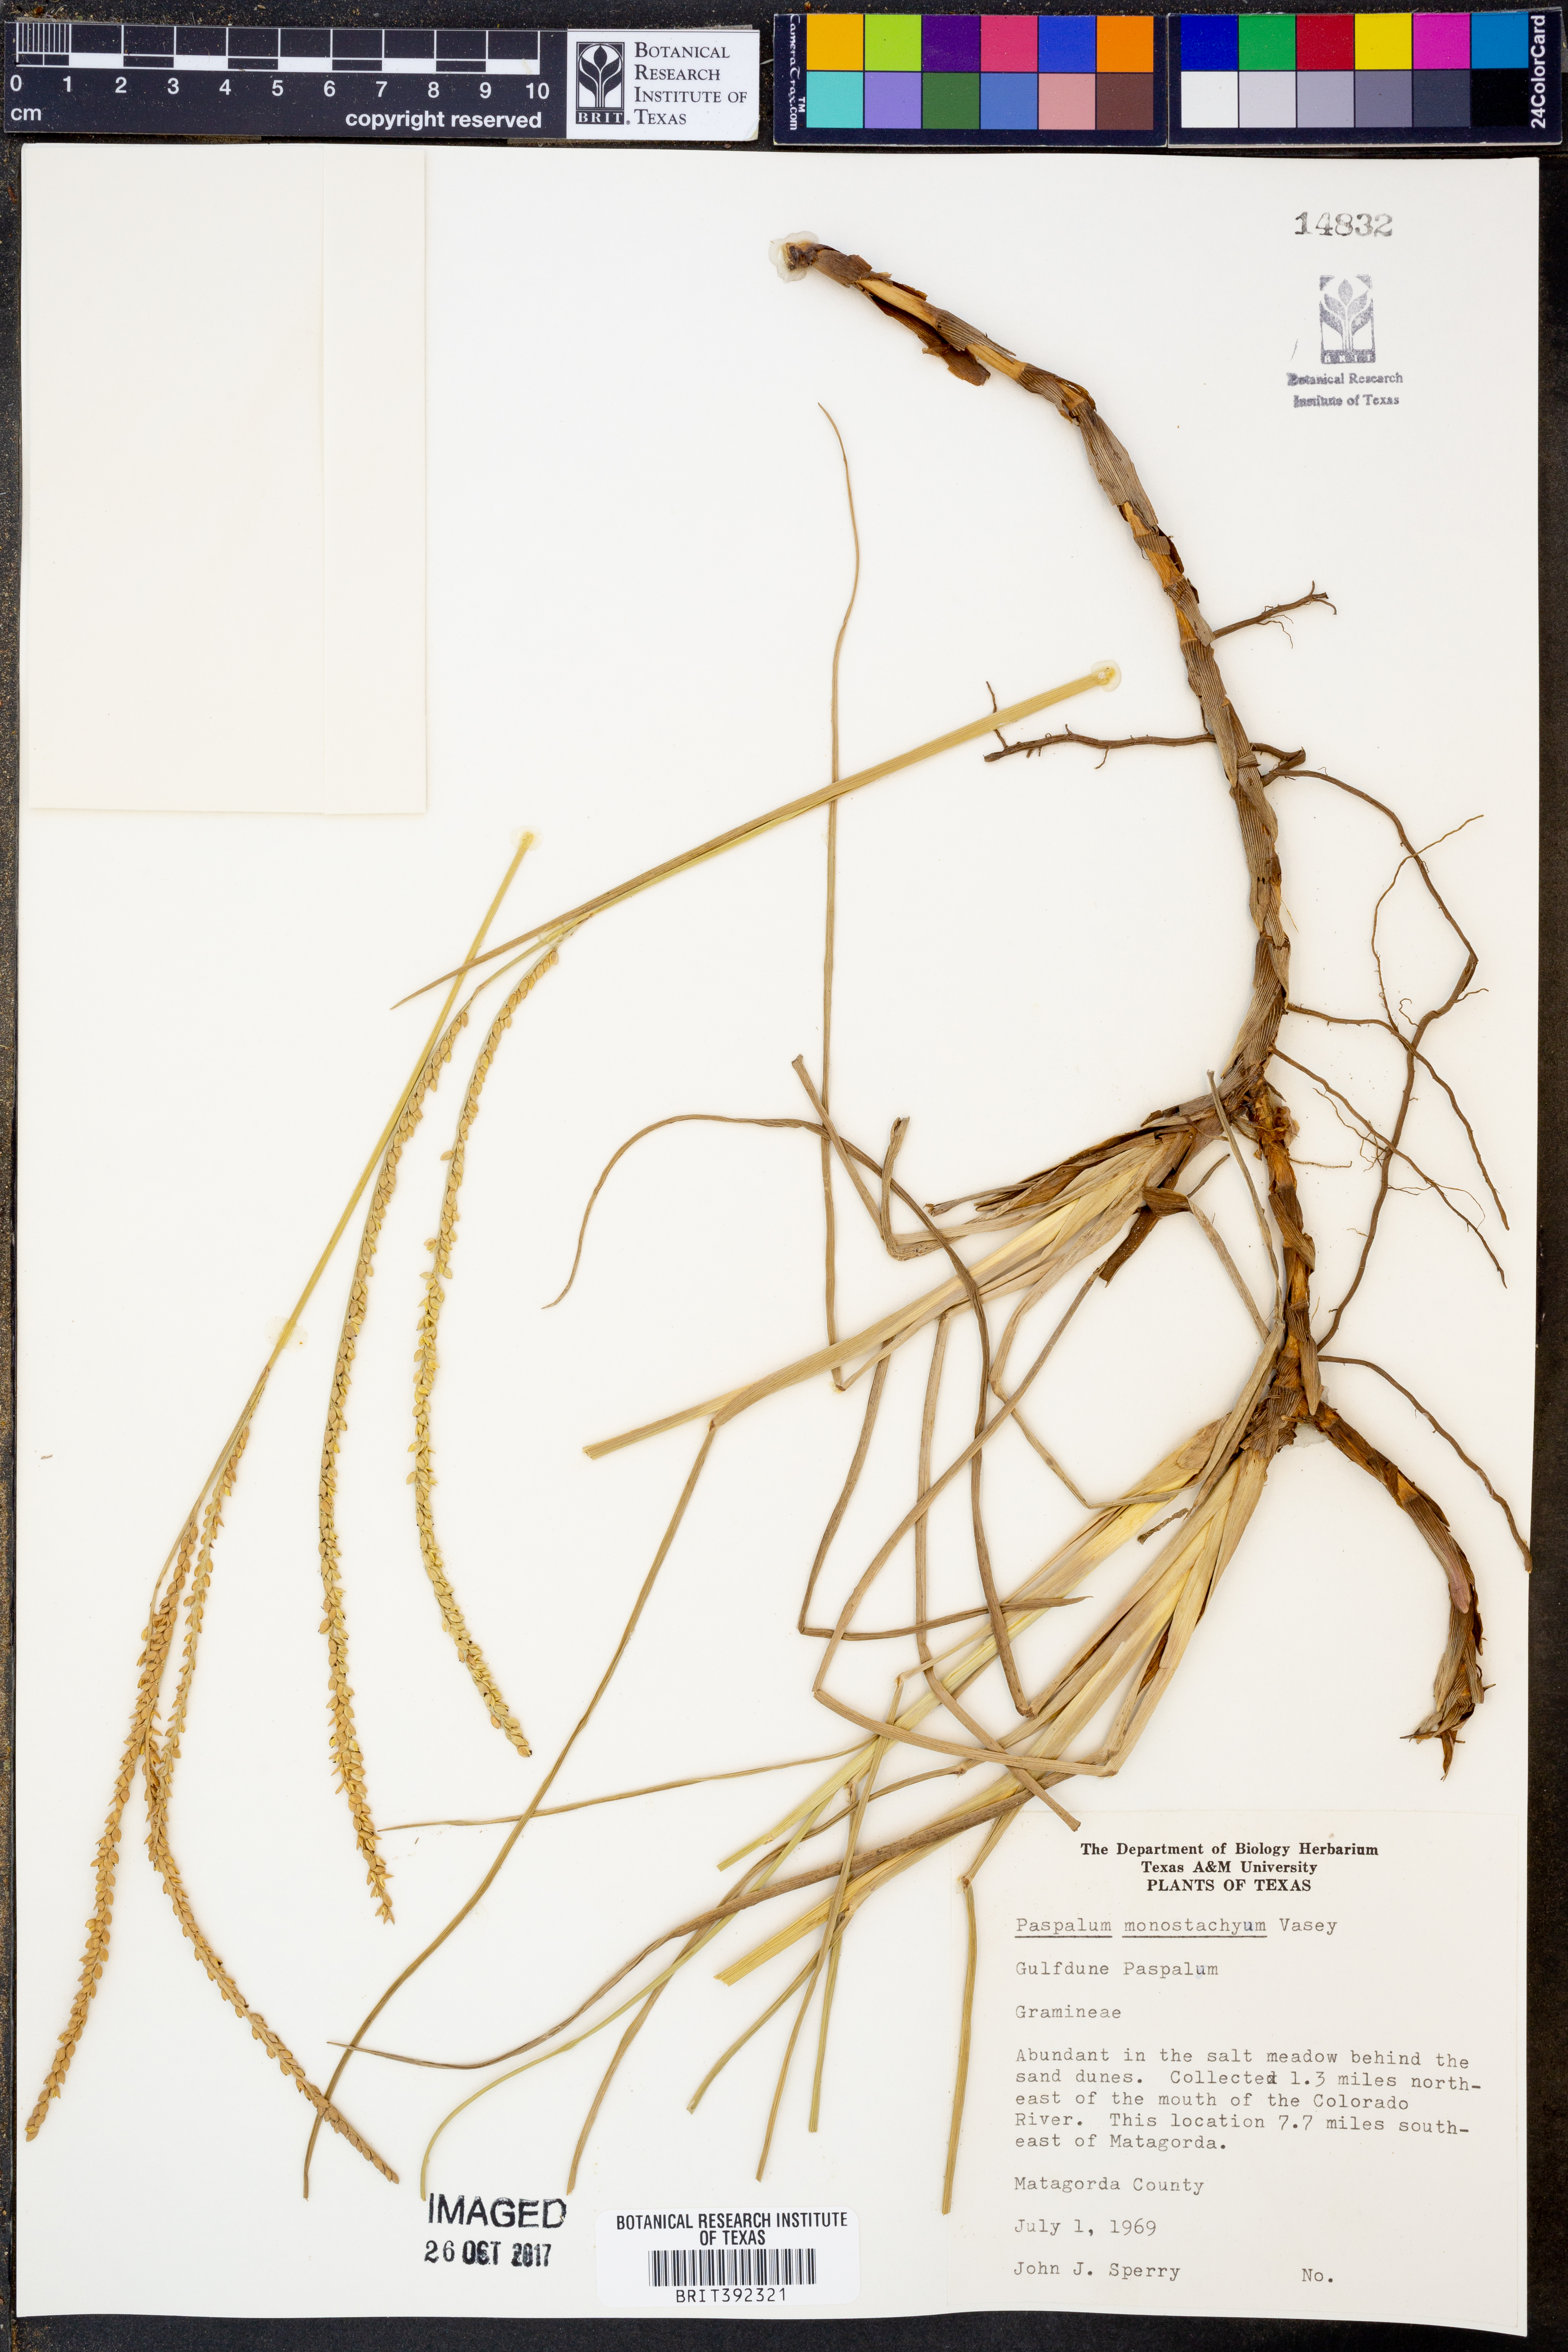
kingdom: Plantae
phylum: Tracheophyta
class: Liliopsida
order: Poales
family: Poaceae
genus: Paspalum
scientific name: Paspalum monostachyum
